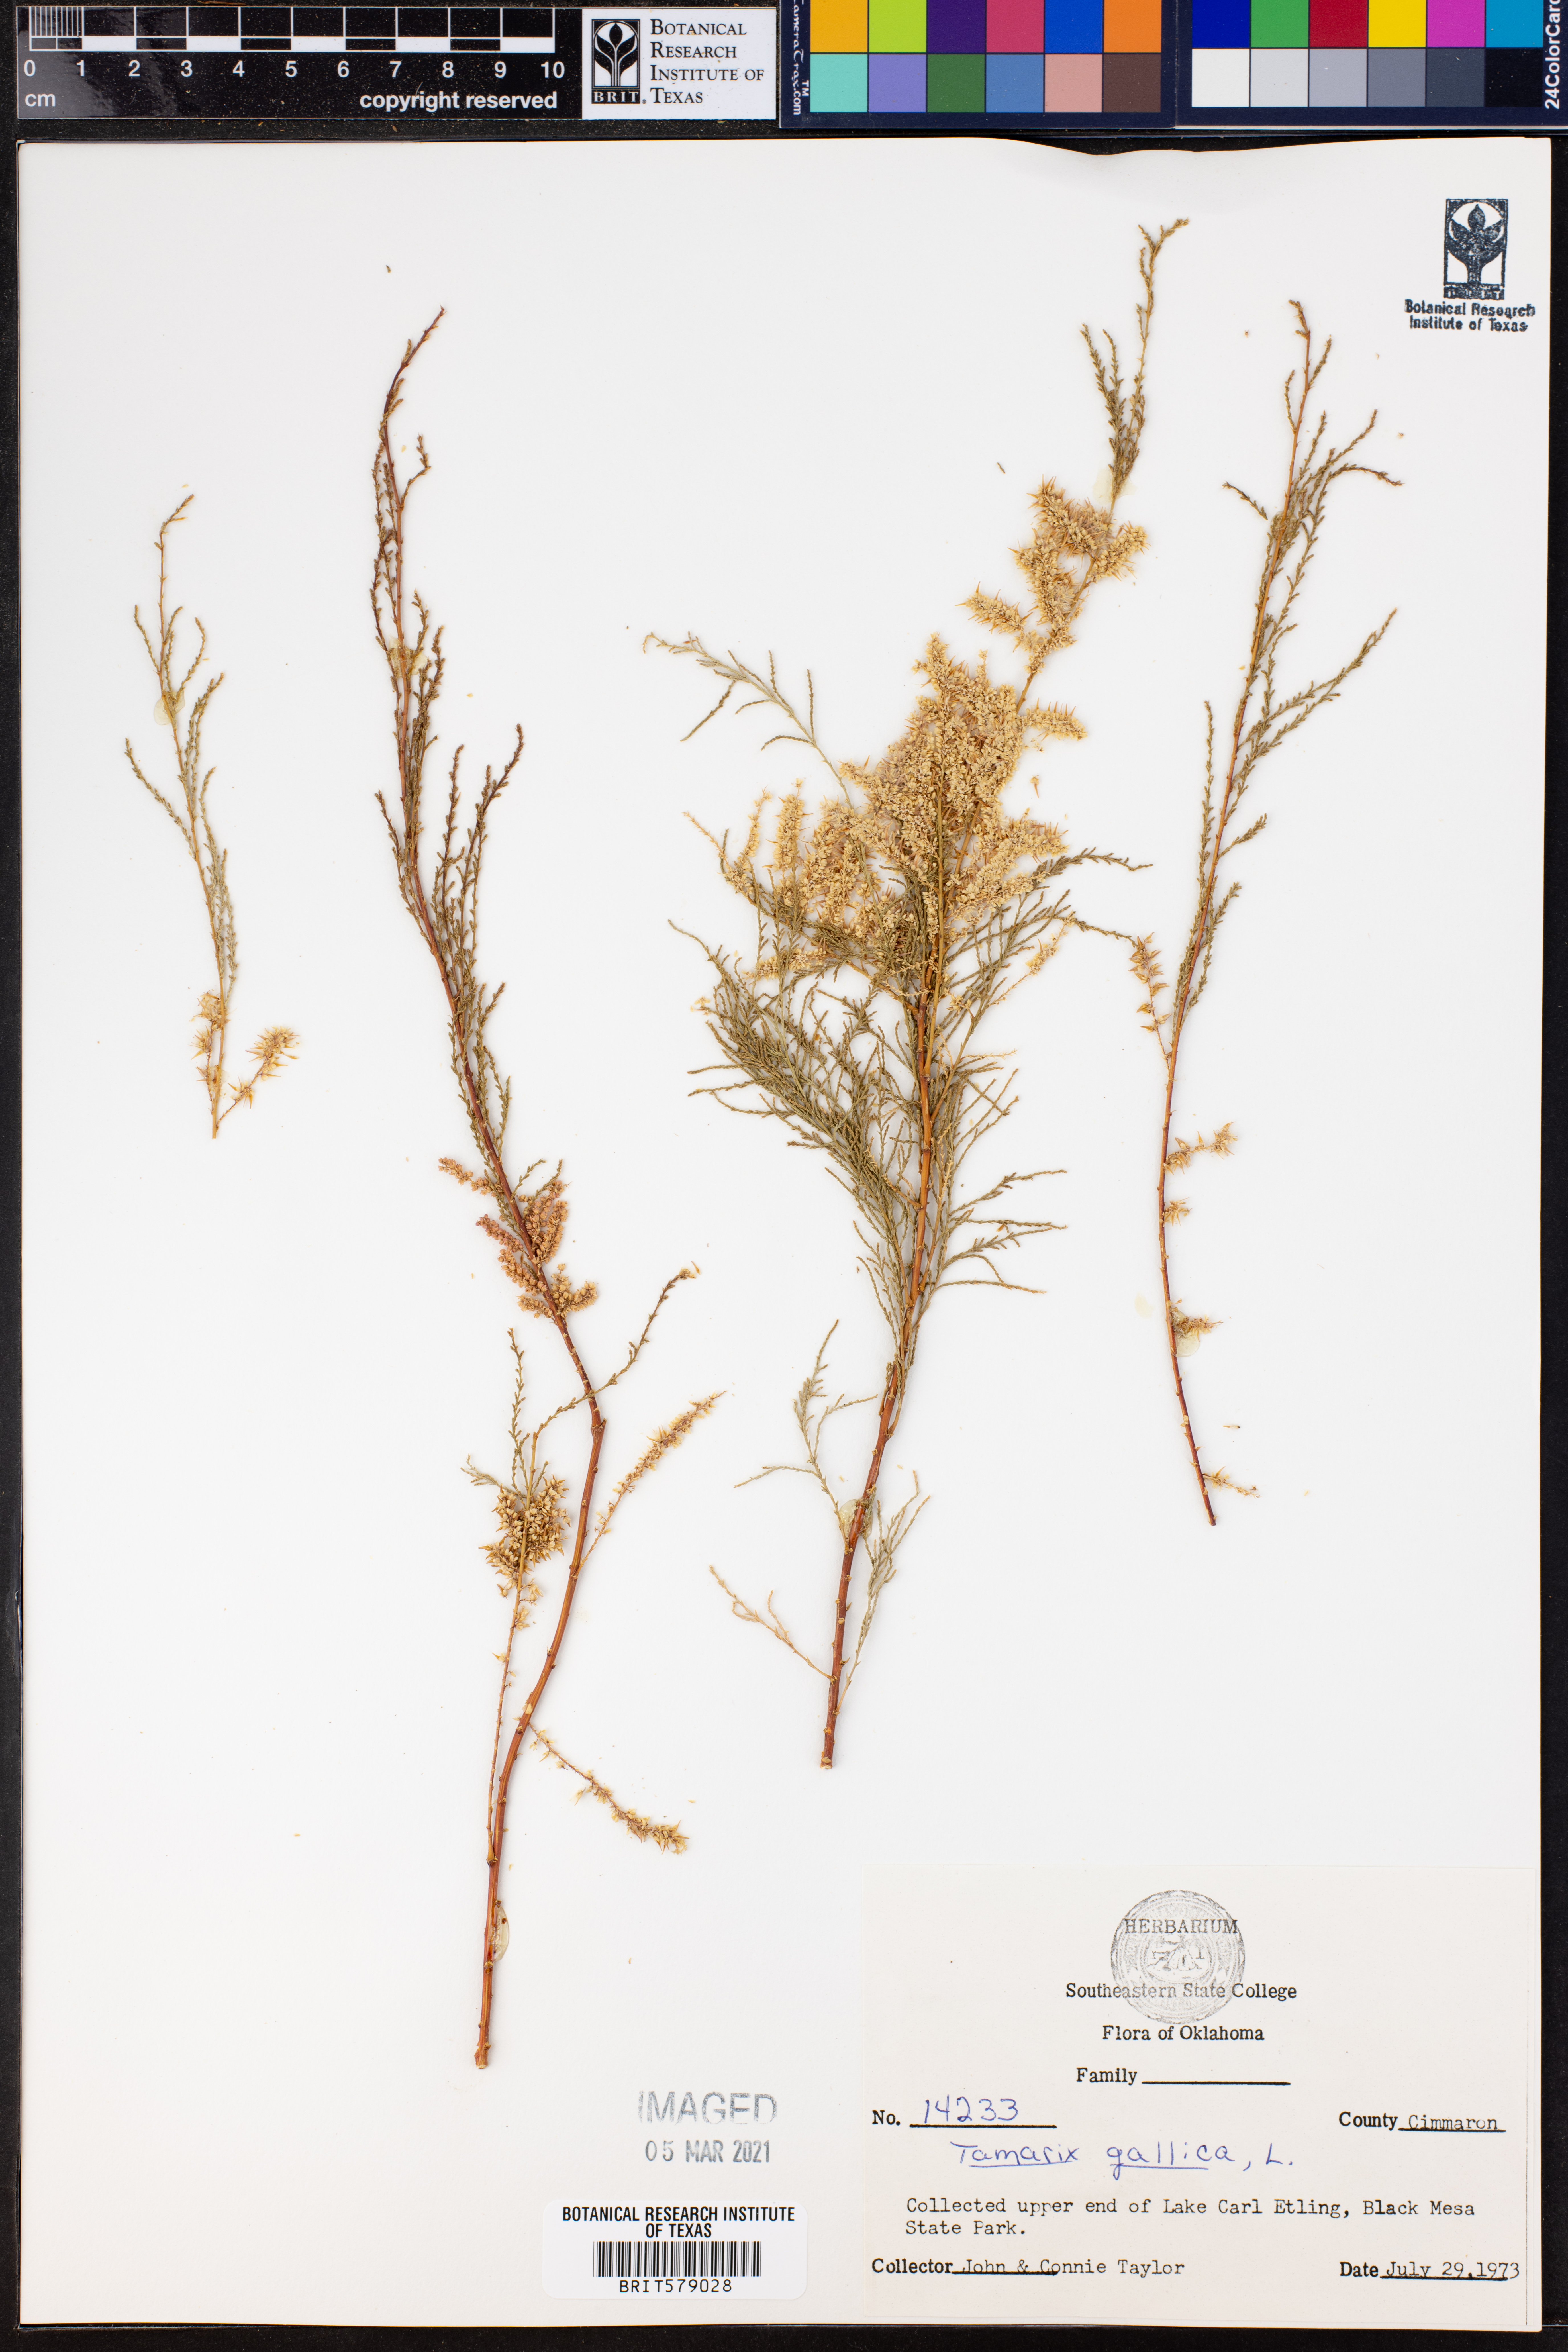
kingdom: Plantae
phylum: Tracheophyta
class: Magnoliopsida
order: Caryophyllales
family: Tamaricaceae
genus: Tamarix
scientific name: Tamarix gallica
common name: Tamarisk
